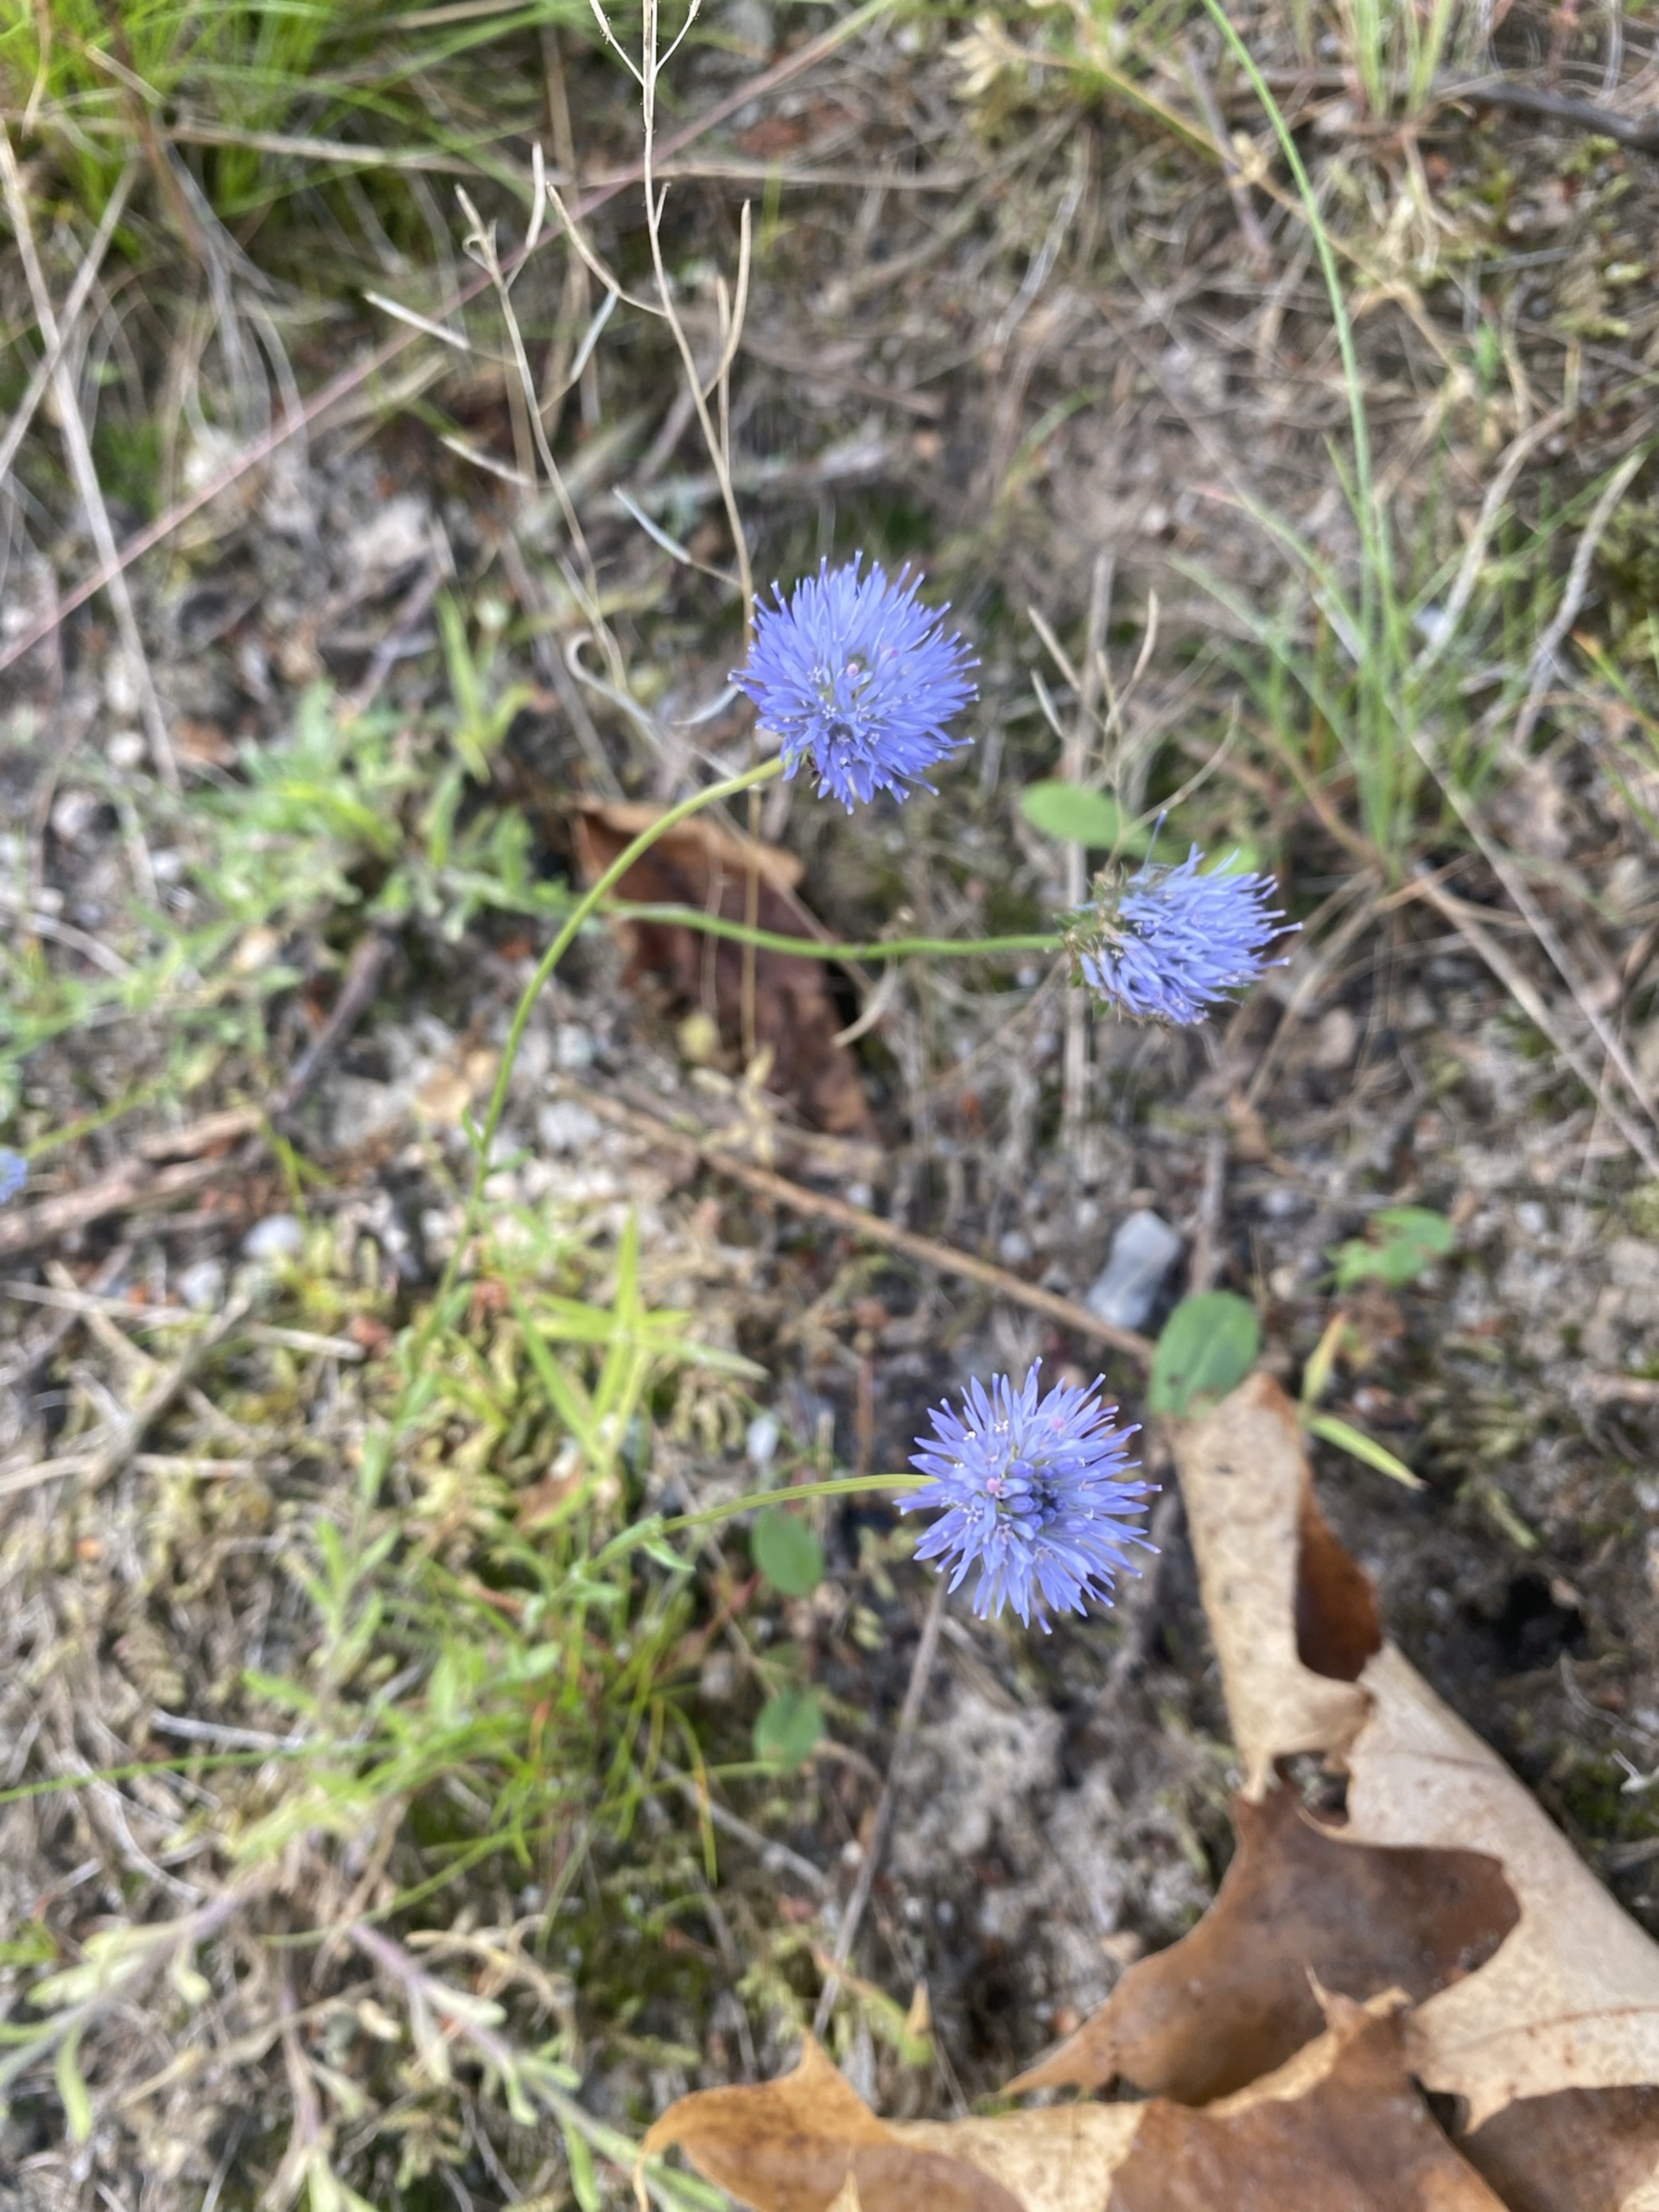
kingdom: Plantae
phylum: Tracheophyta
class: Magnoliopsida
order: Asterales
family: Campanulaceae
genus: Jasione
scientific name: Jasione montana
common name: Blåmunke
